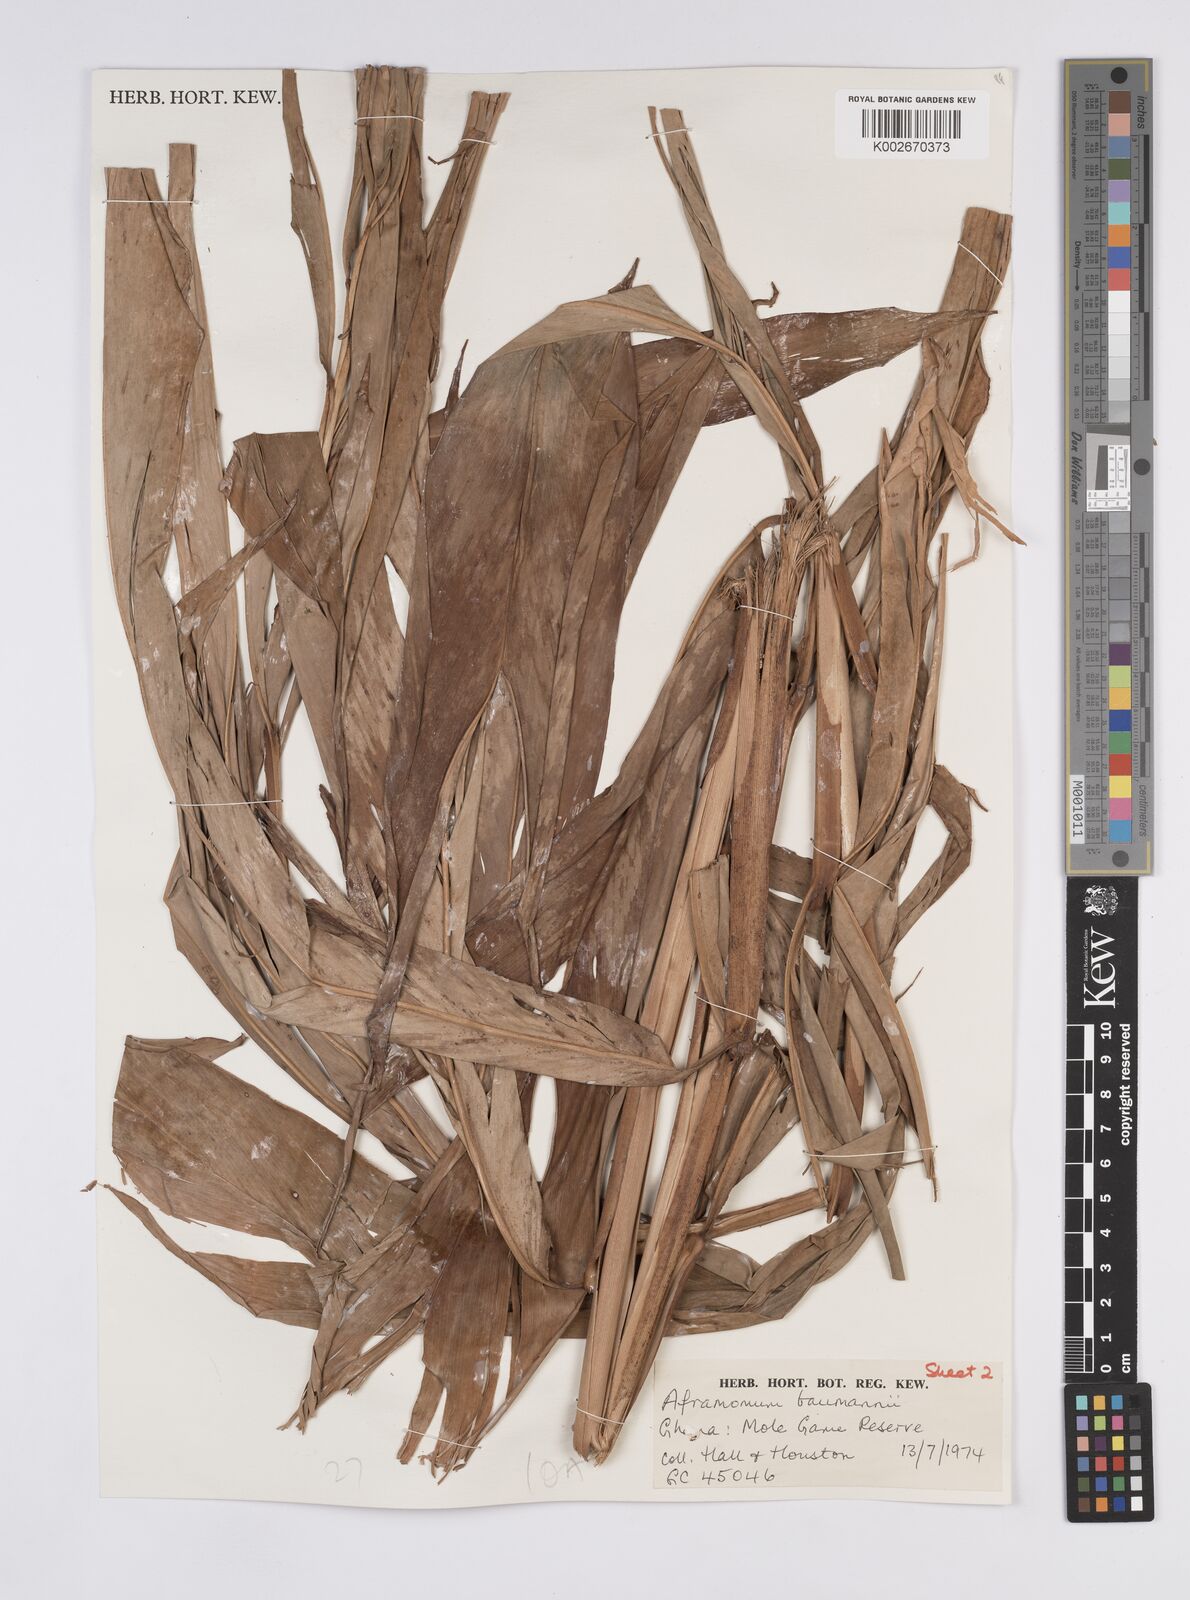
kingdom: Plantae
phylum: Tracheophyta
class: Liliopsida
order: Zingiberales
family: Zingiberaceae
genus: Aframomum
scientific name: Aframomum angustifolium
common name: Guinea grains
